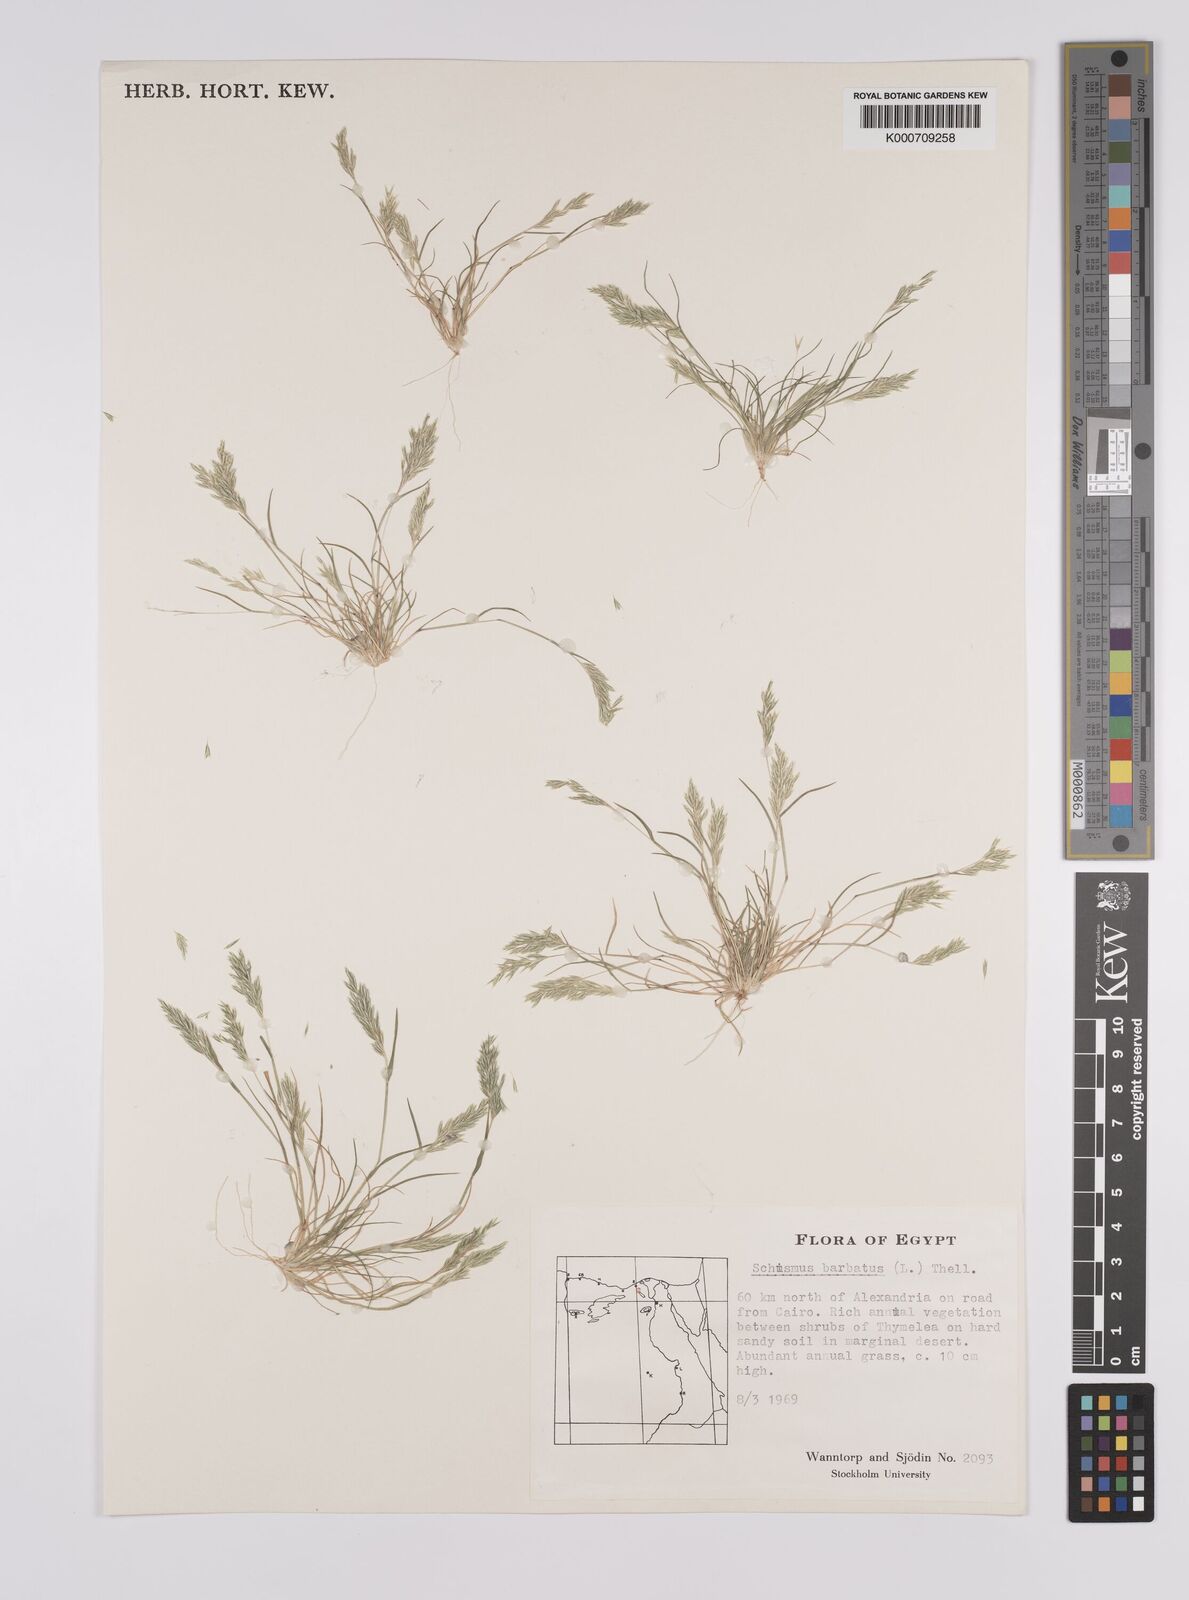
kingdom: Plantae
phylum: Tracheophyta
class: Liliopsida
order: Poales
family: Poaceae
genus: Schismus
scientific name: Schismus barbatus
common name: Kelch-grass
